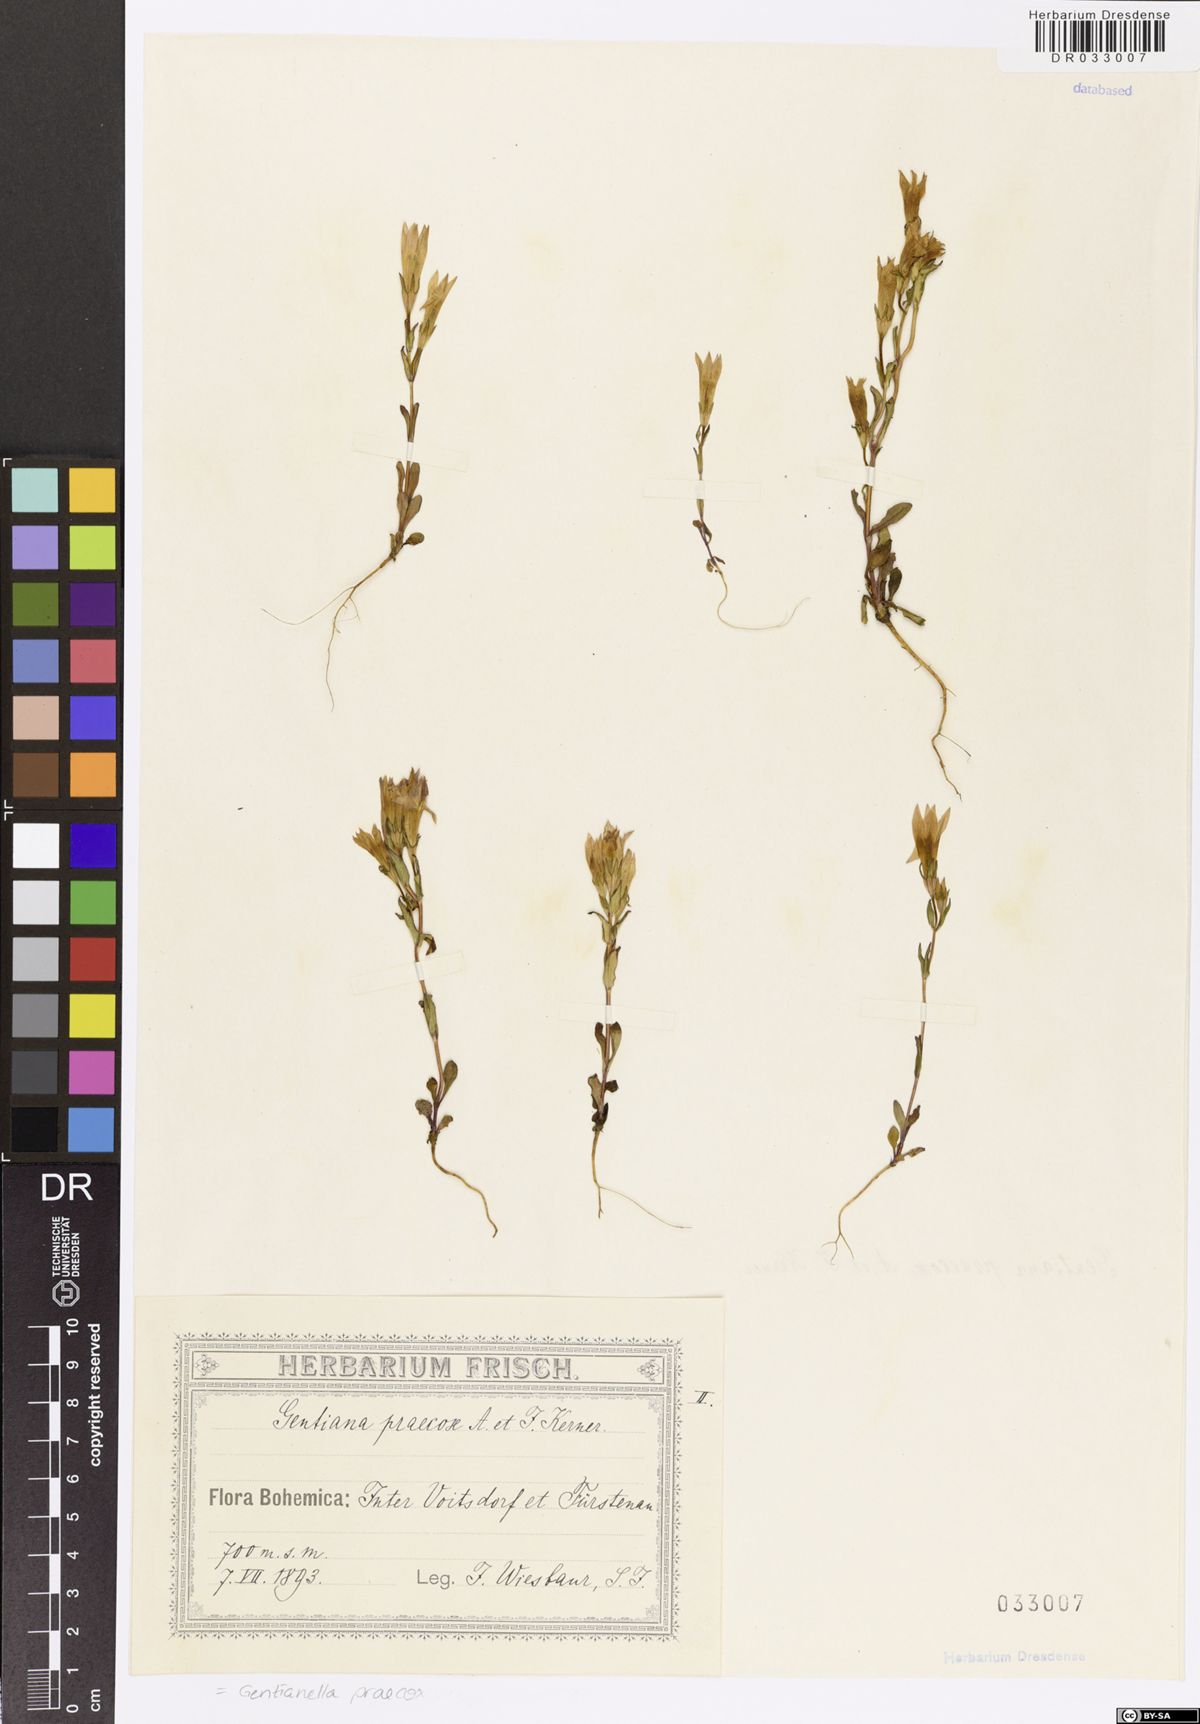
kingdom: Plantae
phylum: Tracheophyta
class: Magnoliopsida
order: Gentianales
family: Gentianaceae
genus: Gentianella
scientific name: Gentianella praecox
